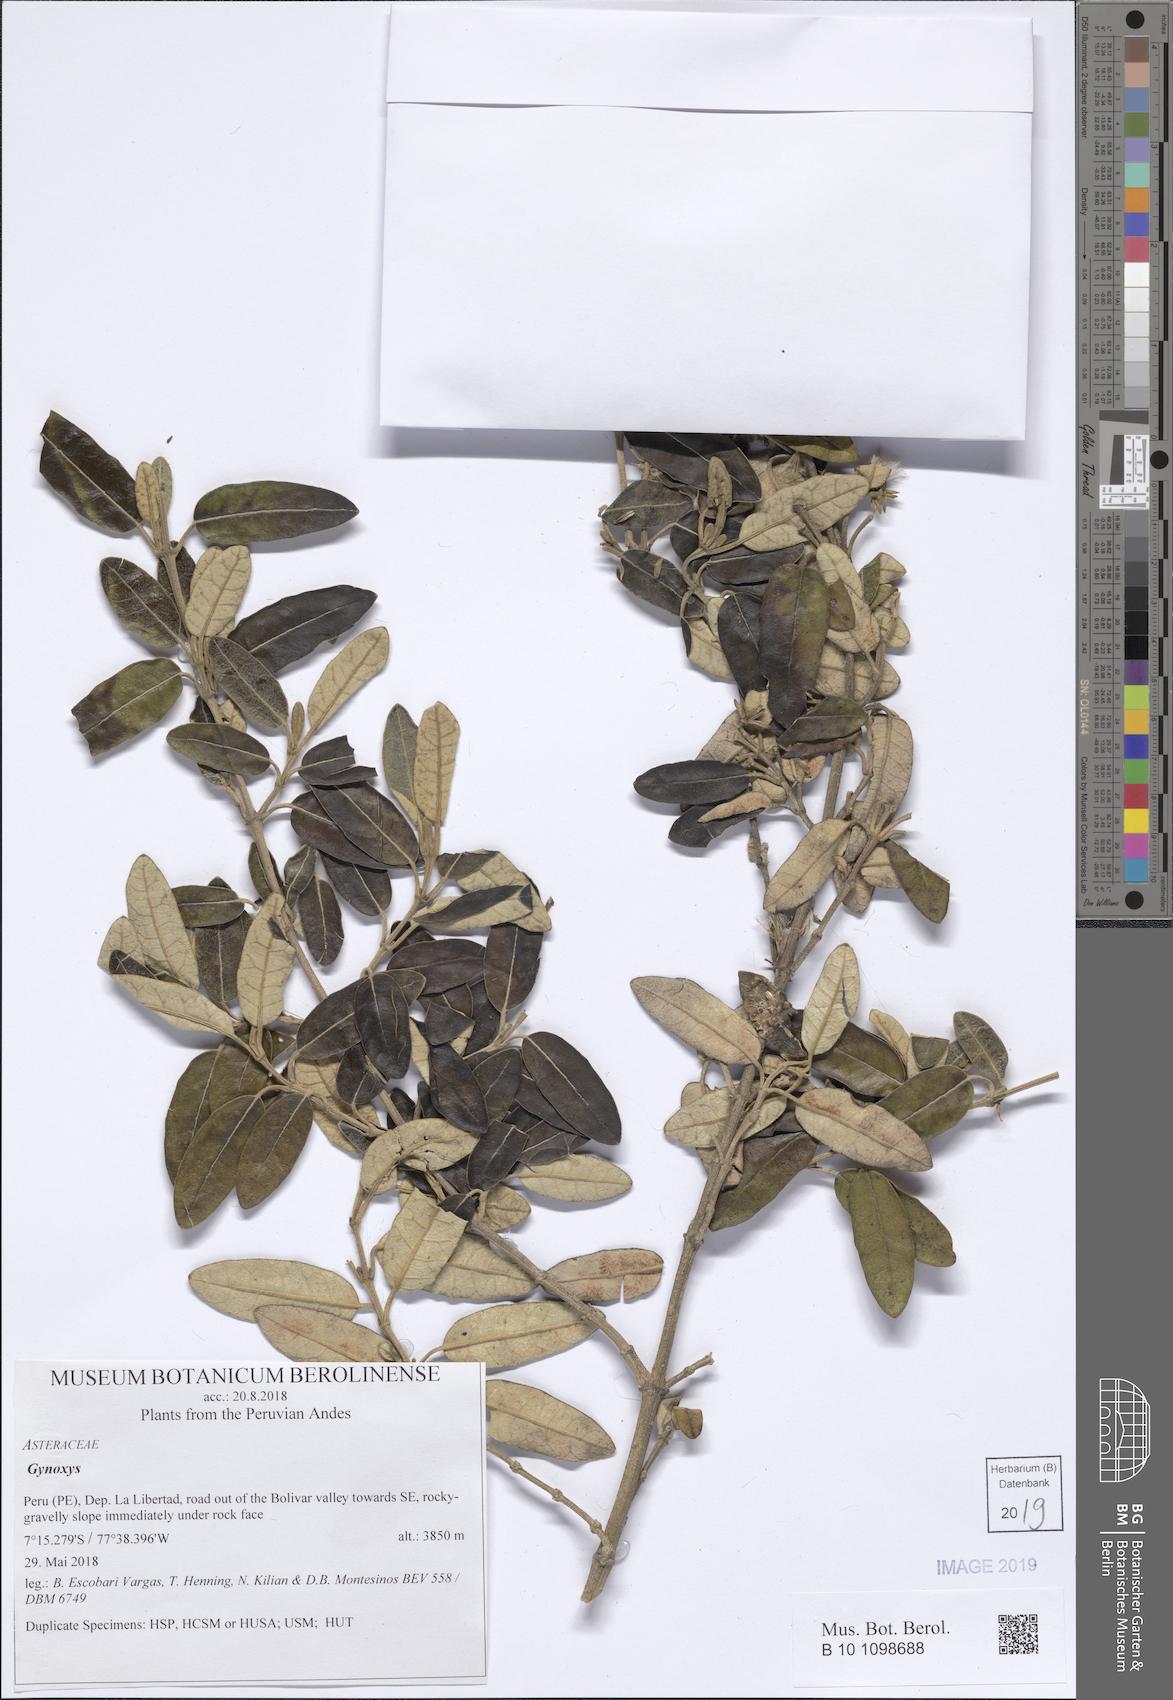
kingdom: Plantae
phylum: Tracheophyta
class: Magnoliopsida
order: Asterales
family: Asteraceae
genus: Gynoxys
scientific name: Gynoxys
